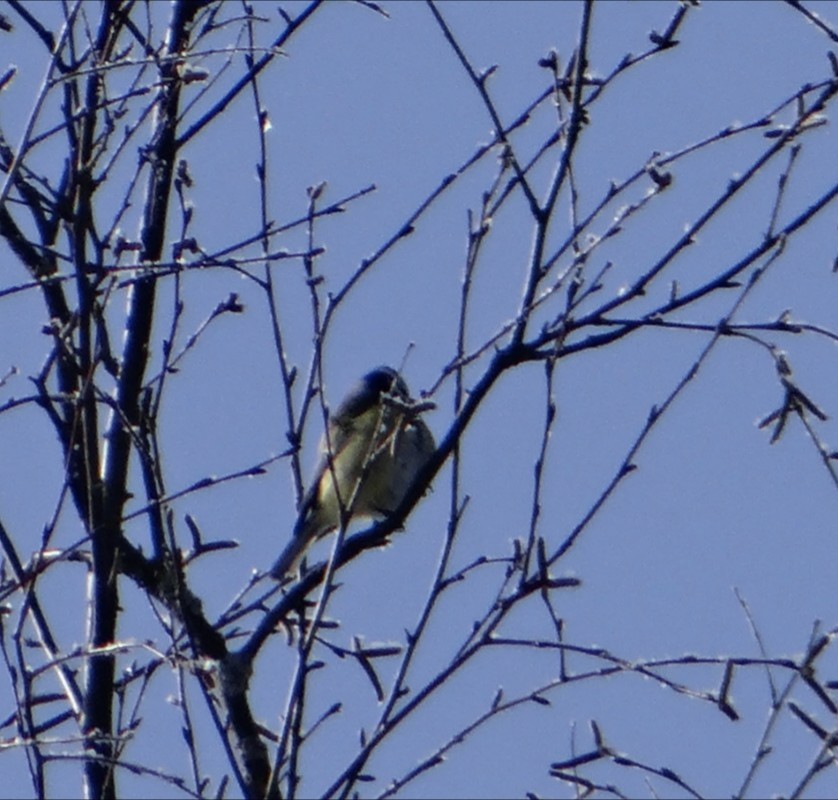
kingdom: Animalia
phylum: Chordata
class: Aves
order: Passeriformes
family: Paridae
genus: Cyanistes
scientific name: Cyanistes caeruleus
